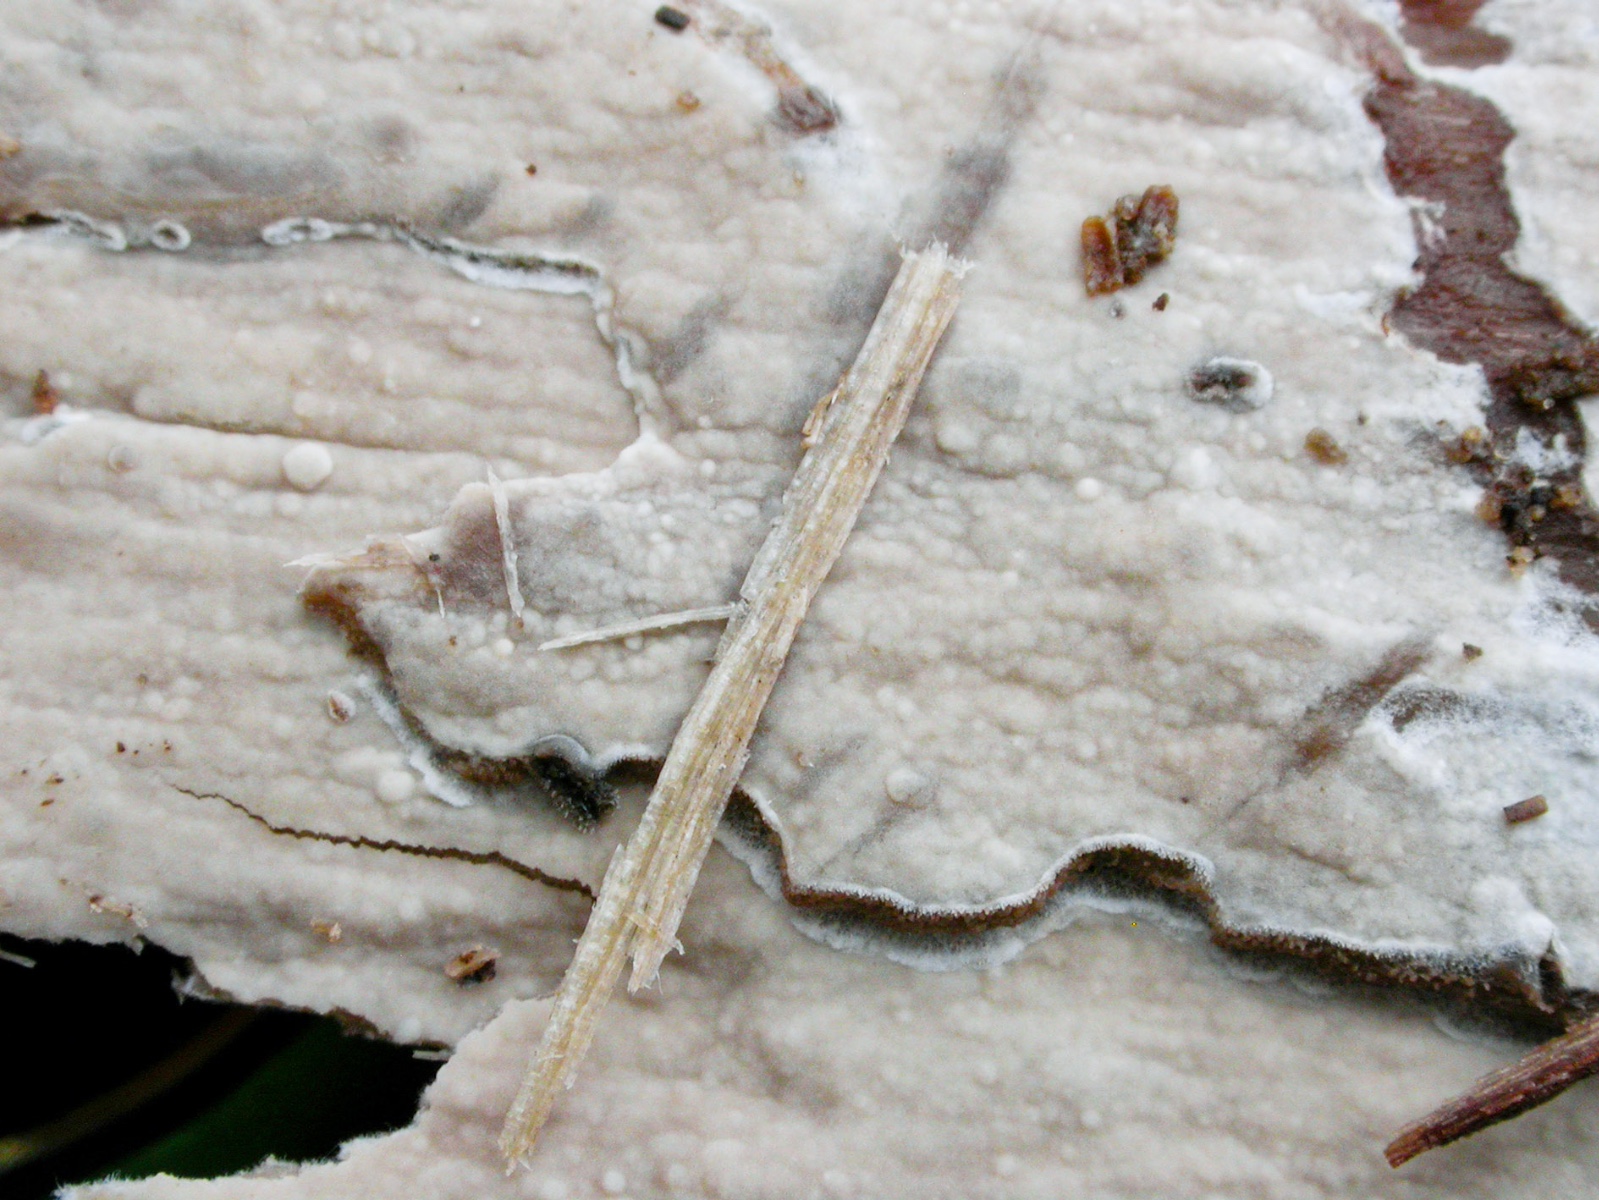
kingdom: Fungi
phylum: Basidiomycota
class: Agaricomycetes
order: Agaricales
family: Cystostereaceae
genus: Crustomyces
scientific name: Crustomyces expallens
